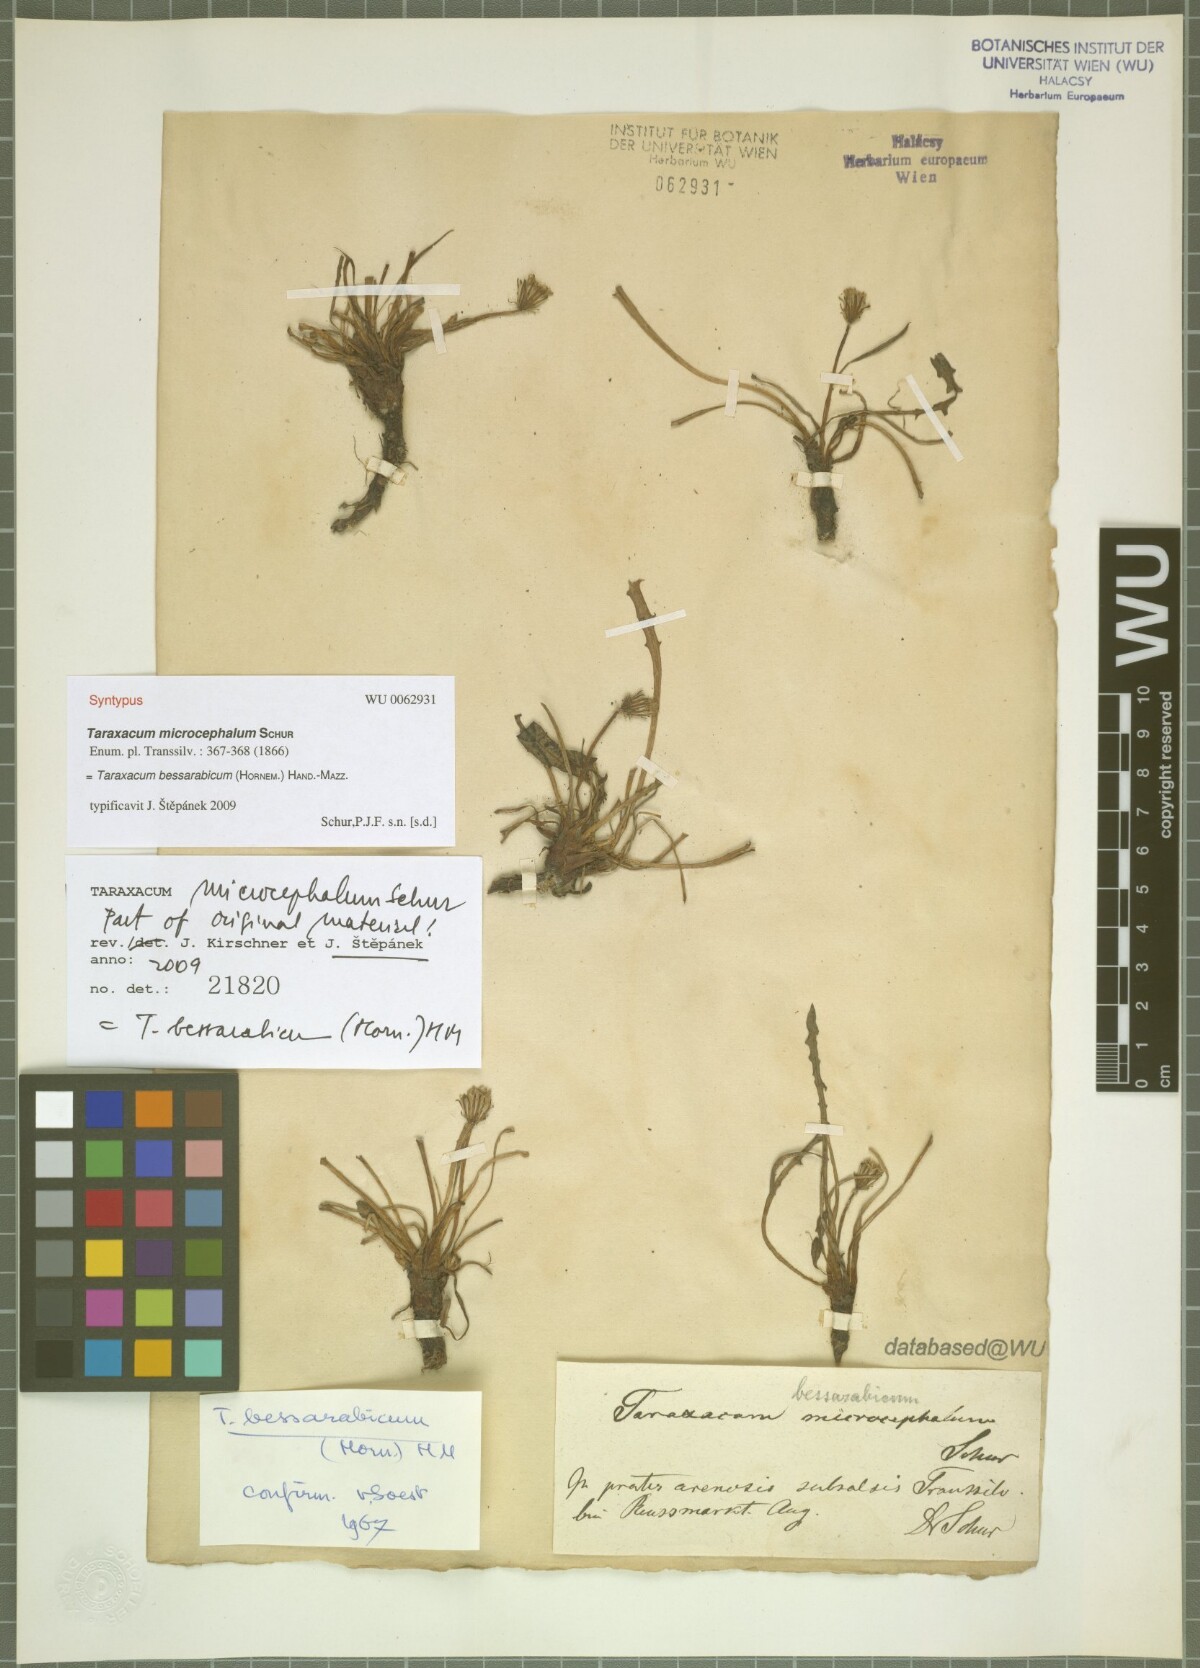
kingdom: Plantae
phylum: Tracheophyta
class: Magnoliopsida
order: Asterales
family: Asteraceae
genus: Taraxacum
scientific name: Taraxacum bessarabicum
